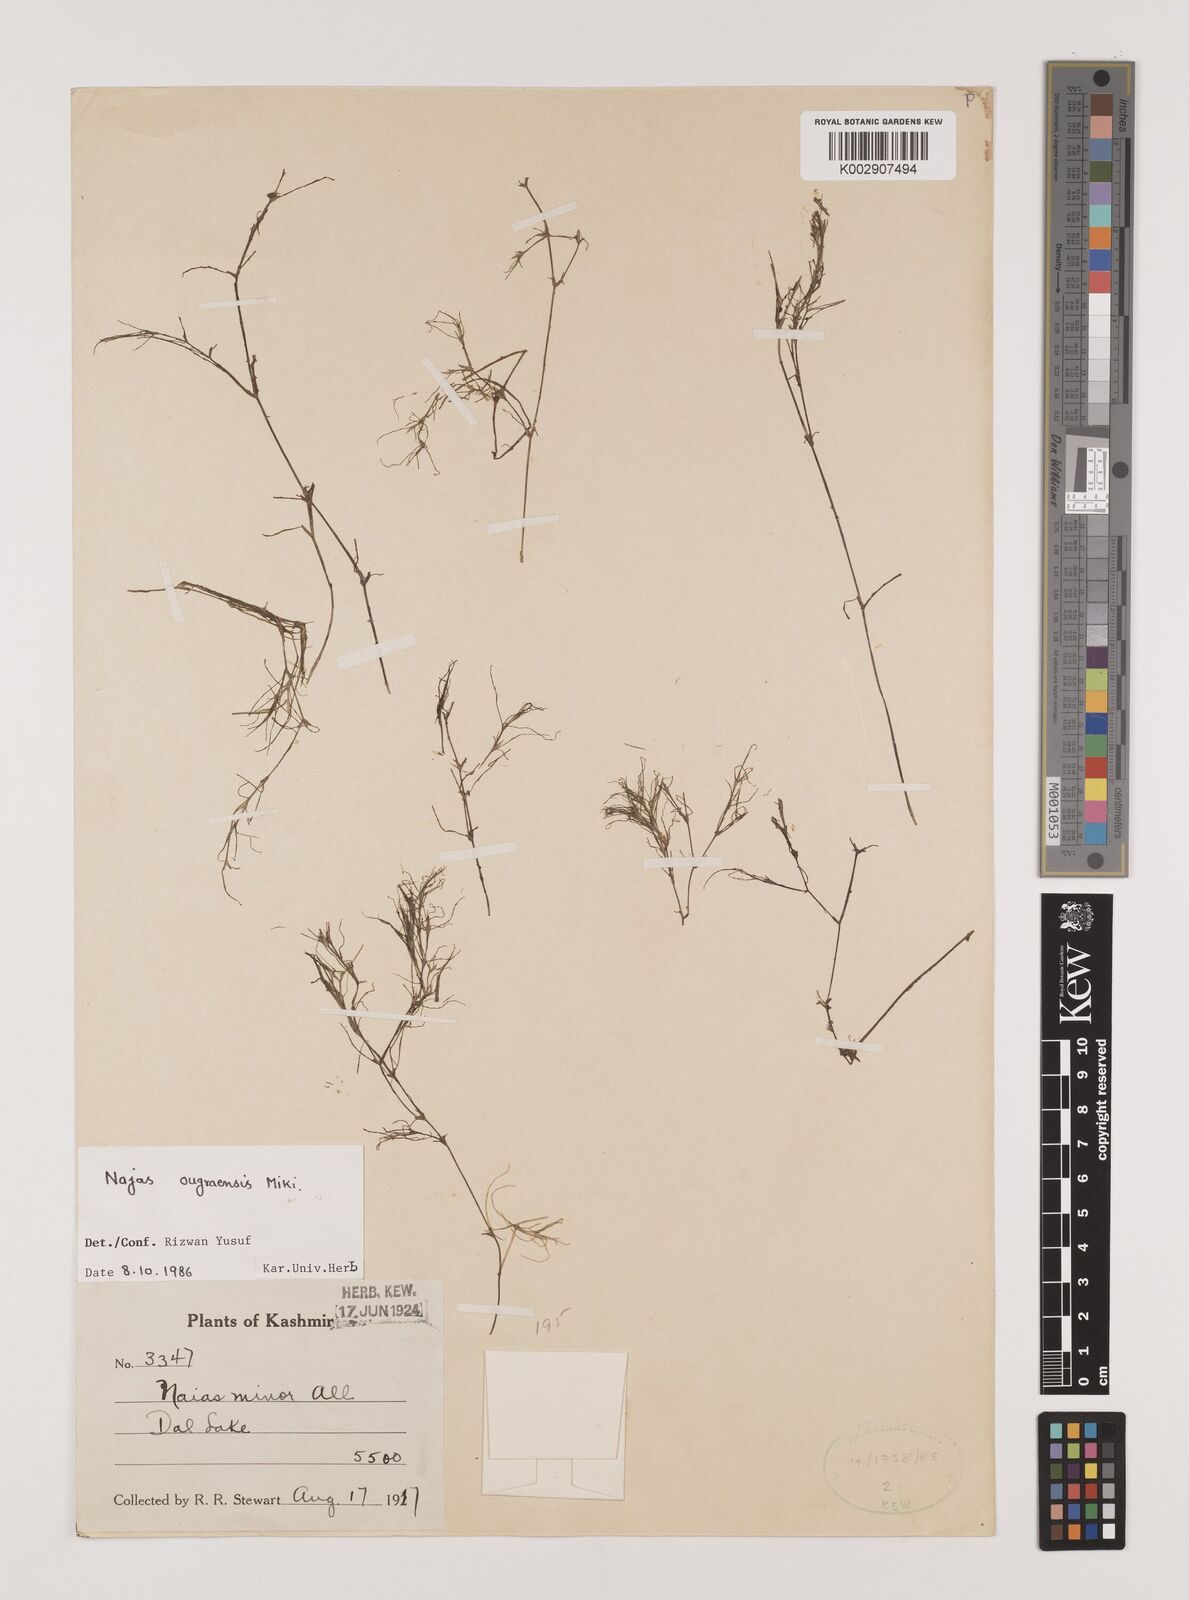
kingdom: Plantae
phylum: Tracheophyta
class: Liliopsida
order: Alismatales
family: Hydrocharitaceae
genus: Najas
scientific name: Najas oguraensis
